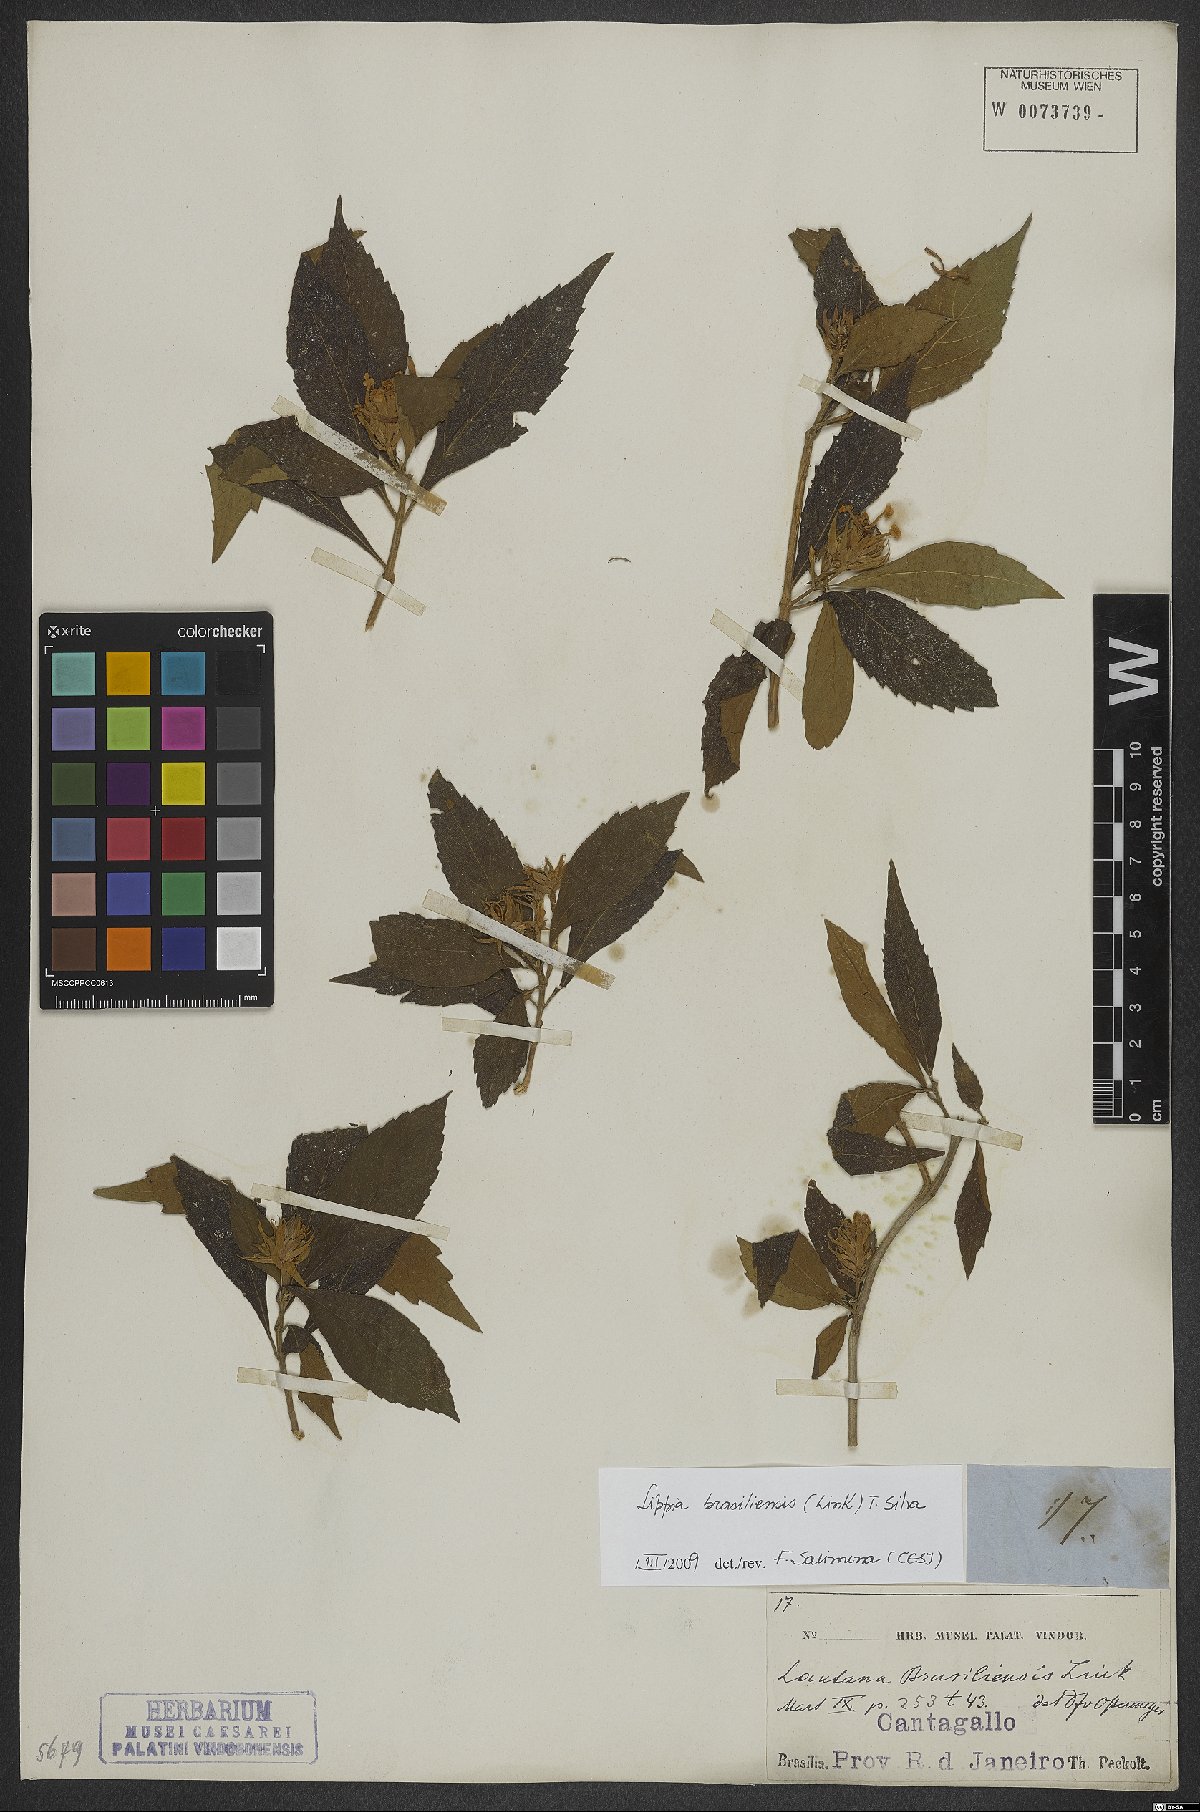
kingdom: Plantae
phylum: Tracheophyta
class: Magnoliopsida
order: Lamiales
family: Verbenaceae
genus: Lippia
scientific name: Lippia brasiliensis
